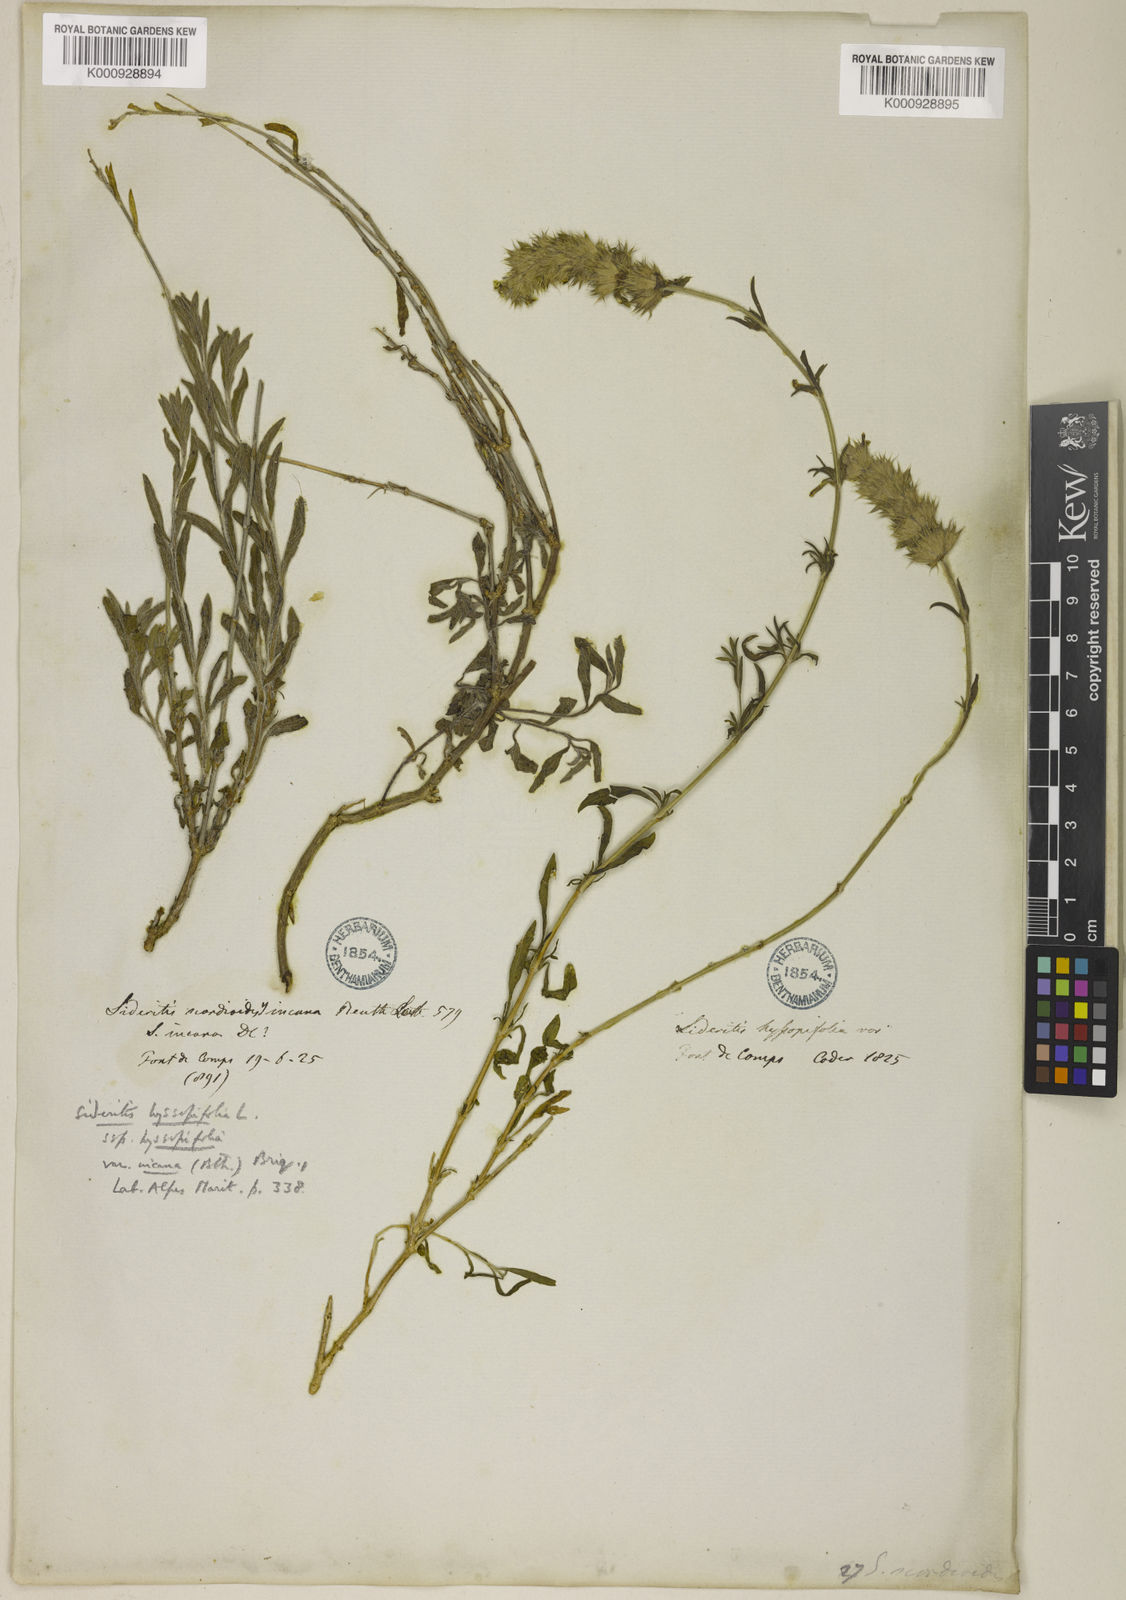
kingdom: Plantae
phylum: Tracheophyta
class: Magnoliopsida
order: Lamiales
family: Lamiaceae
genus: Sideritis
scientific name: Sideritis hyssopifolia
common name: Mountain tea
